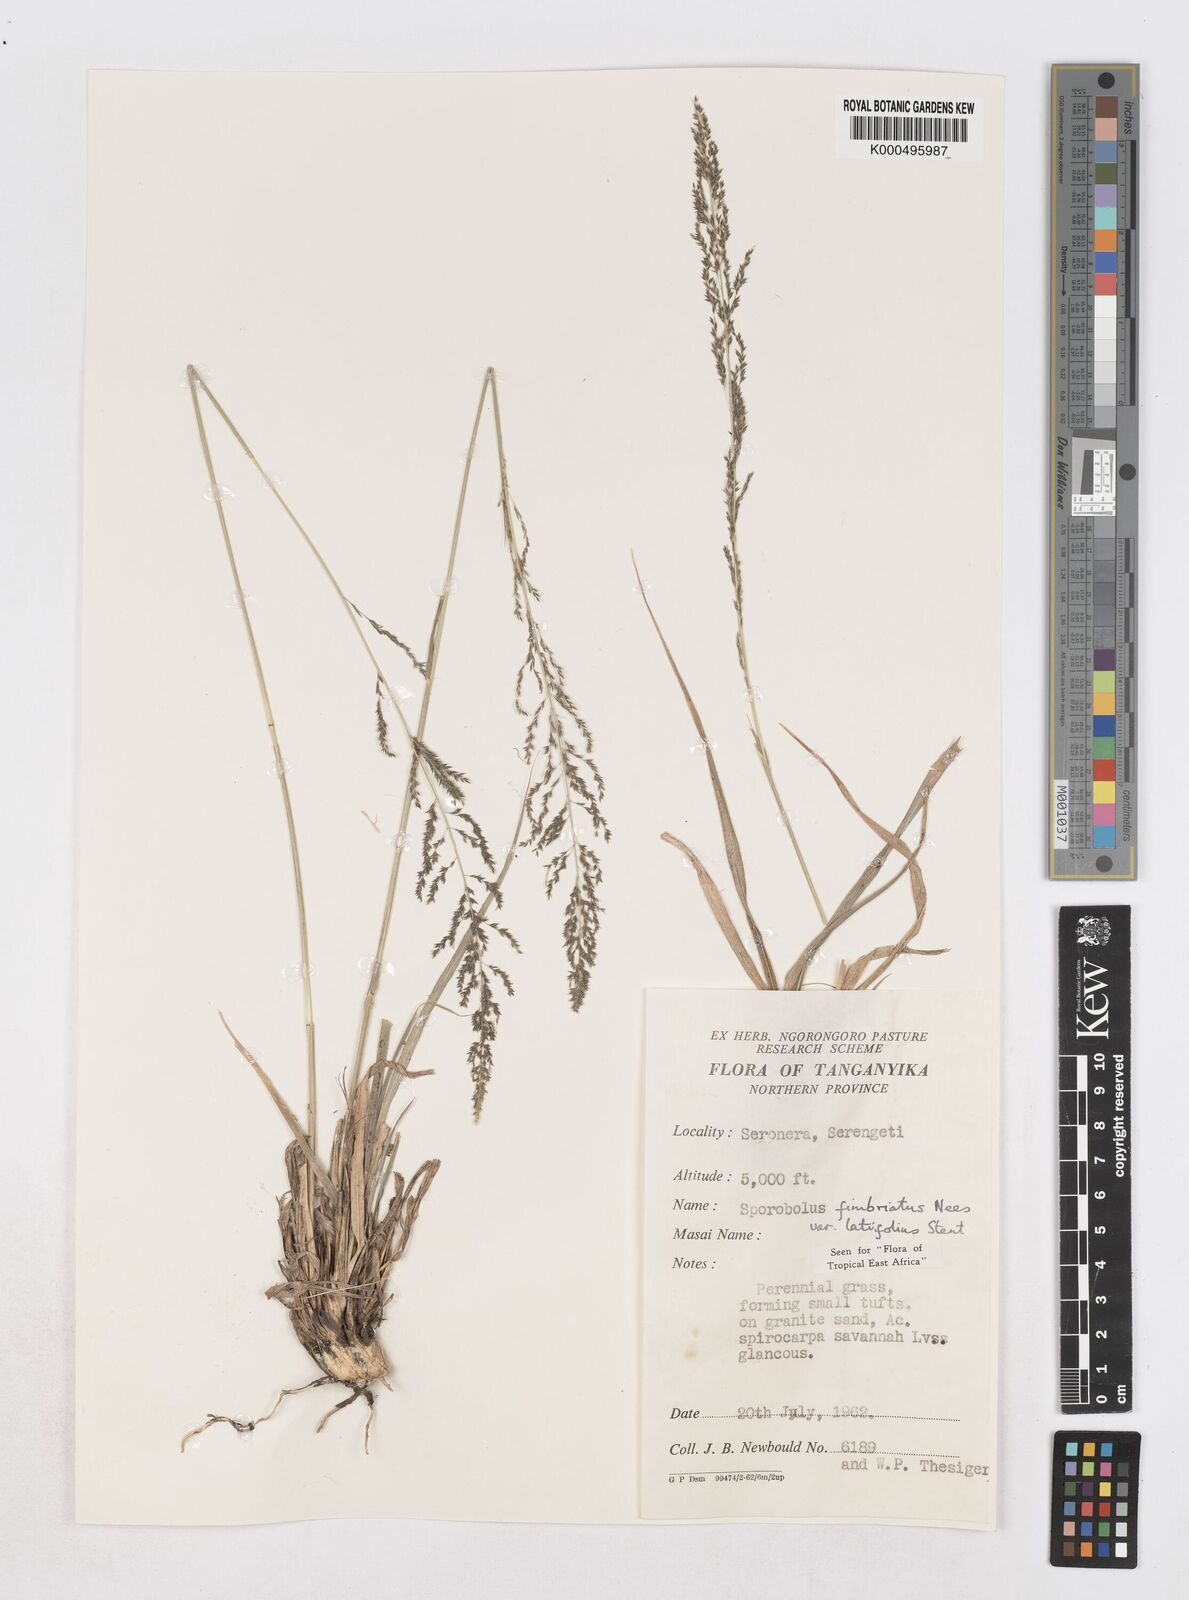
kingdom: Plantae
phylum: Tracheophyta
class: Liliopsida
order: Poales
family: Poaceae
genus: Sporobolus
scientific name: Sporobolus fimbriatus
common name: Fringed dropseed
